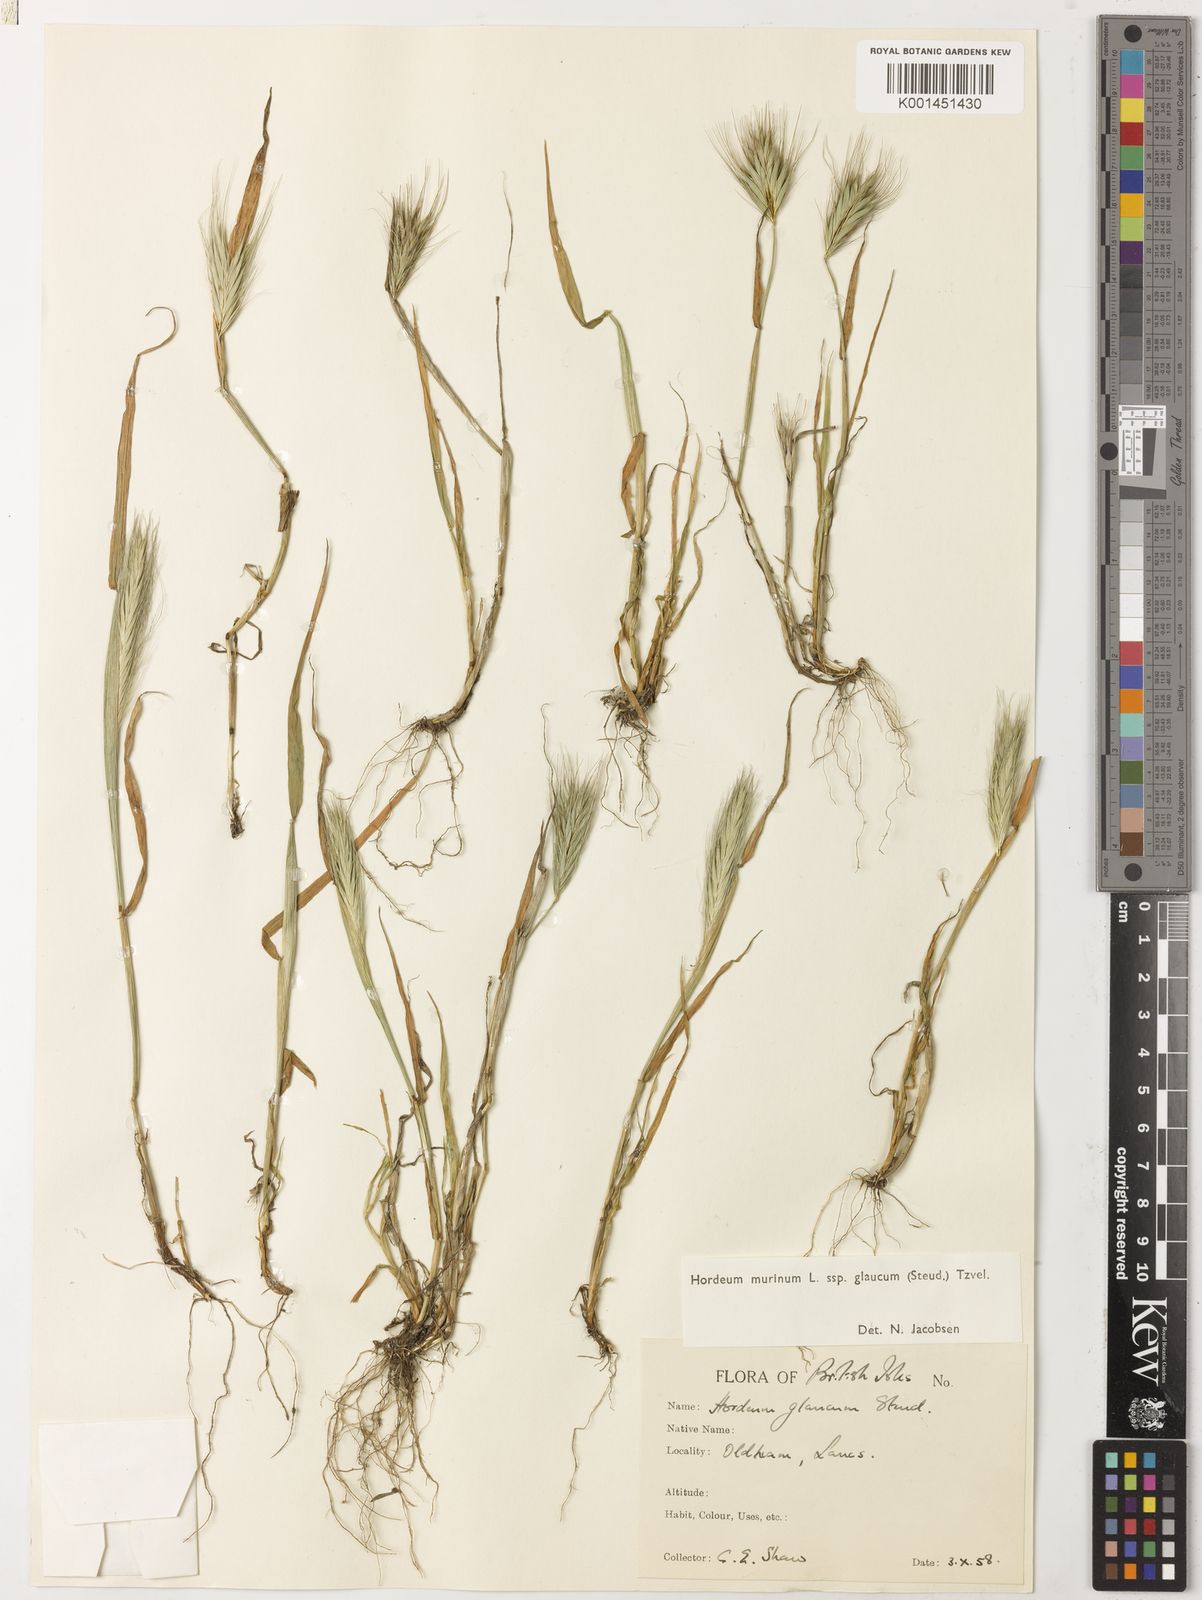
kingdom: Plantae
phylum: Tracheophyta
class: Liliopsida
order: Poales
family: Poaceae
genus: Hordeum
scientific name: Hordeum murinum
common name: Wall barley
